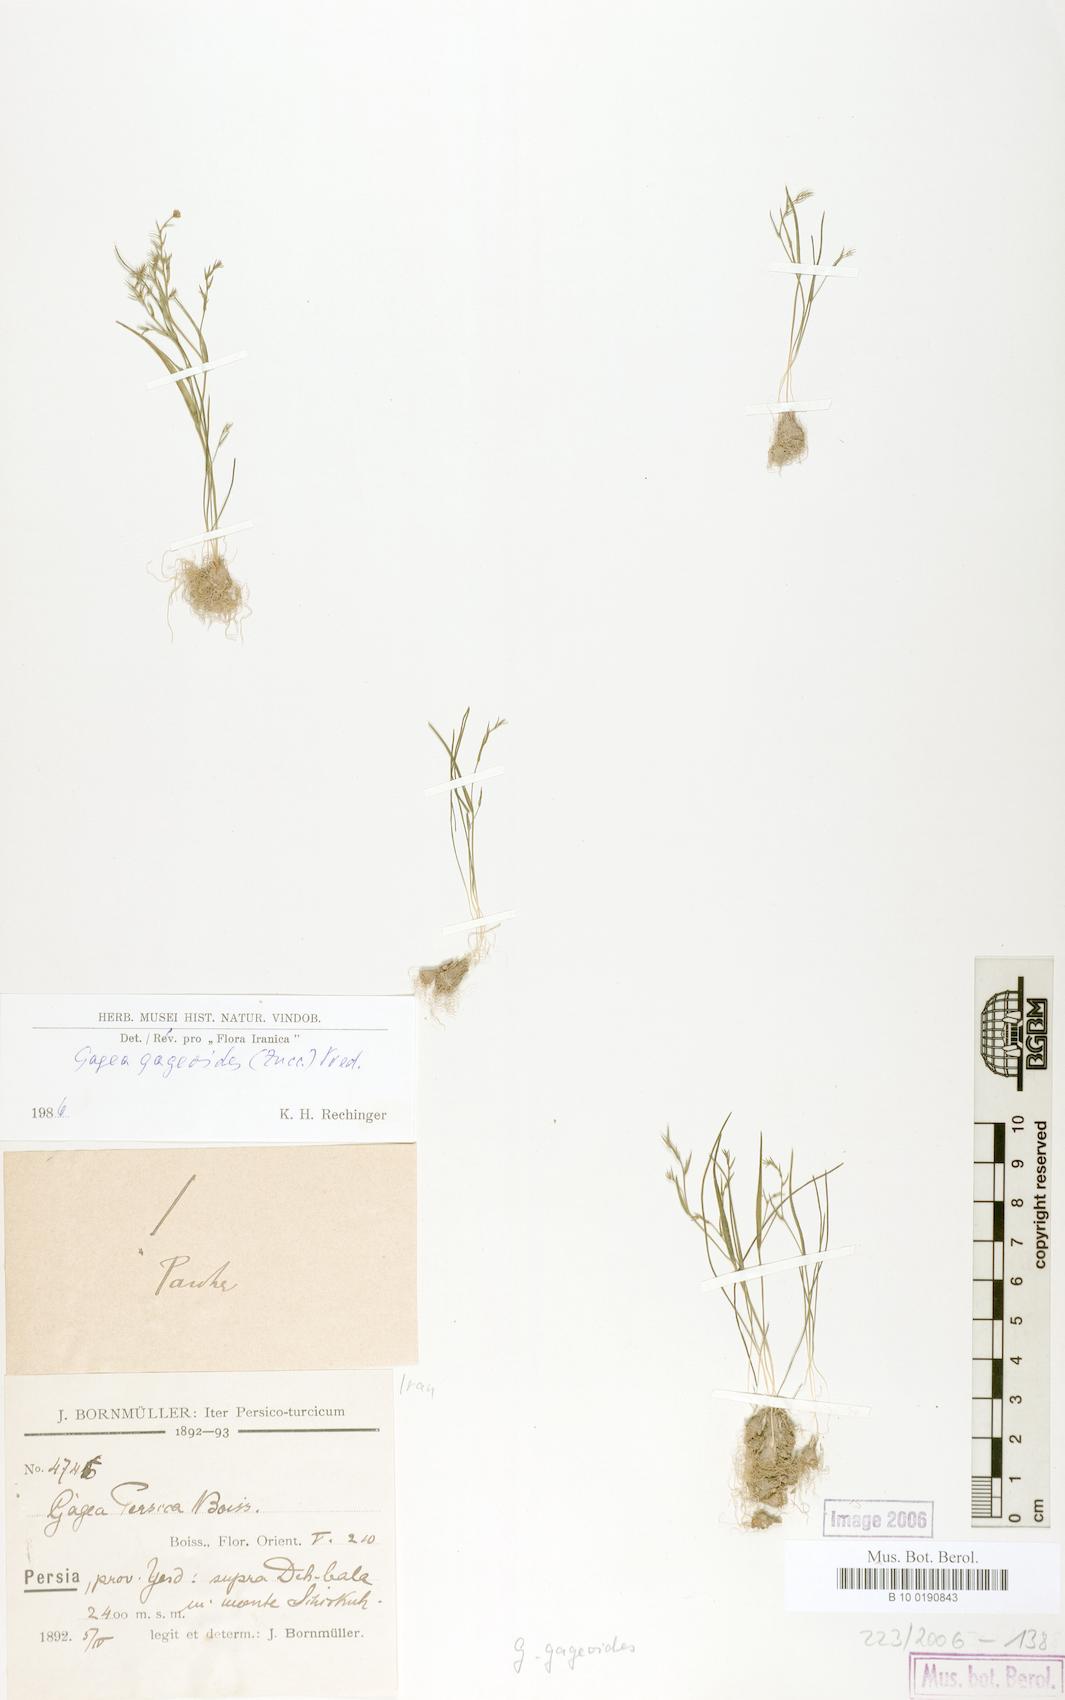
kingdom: Plantae
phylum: Tracheophyta
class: Liliopsida
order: Liliales
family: Liliaceae
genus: Gagea
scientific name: Gagea gageoides
